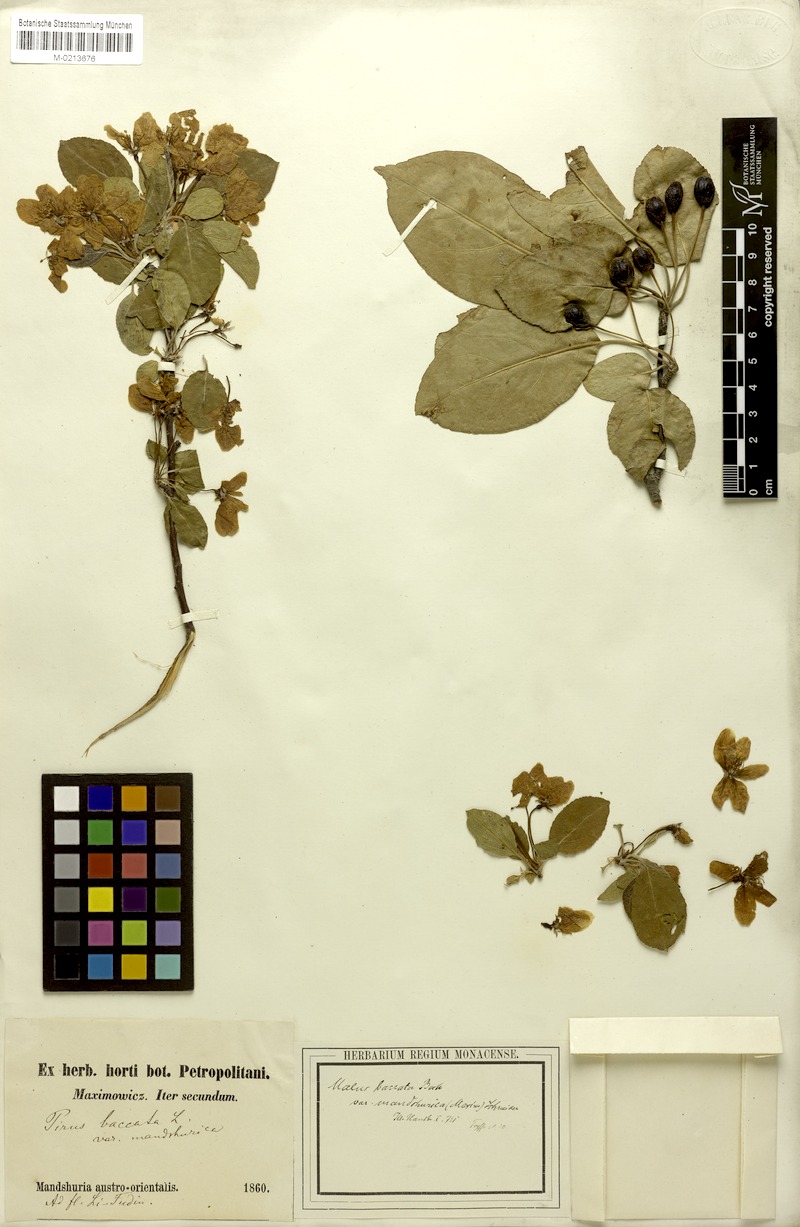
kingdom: Plantae
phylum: Tracheophyta
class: Magnoliopsida
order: Rosales
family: Rosaceae
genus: Malus
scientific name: Malus baccata
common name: Siberian crab
